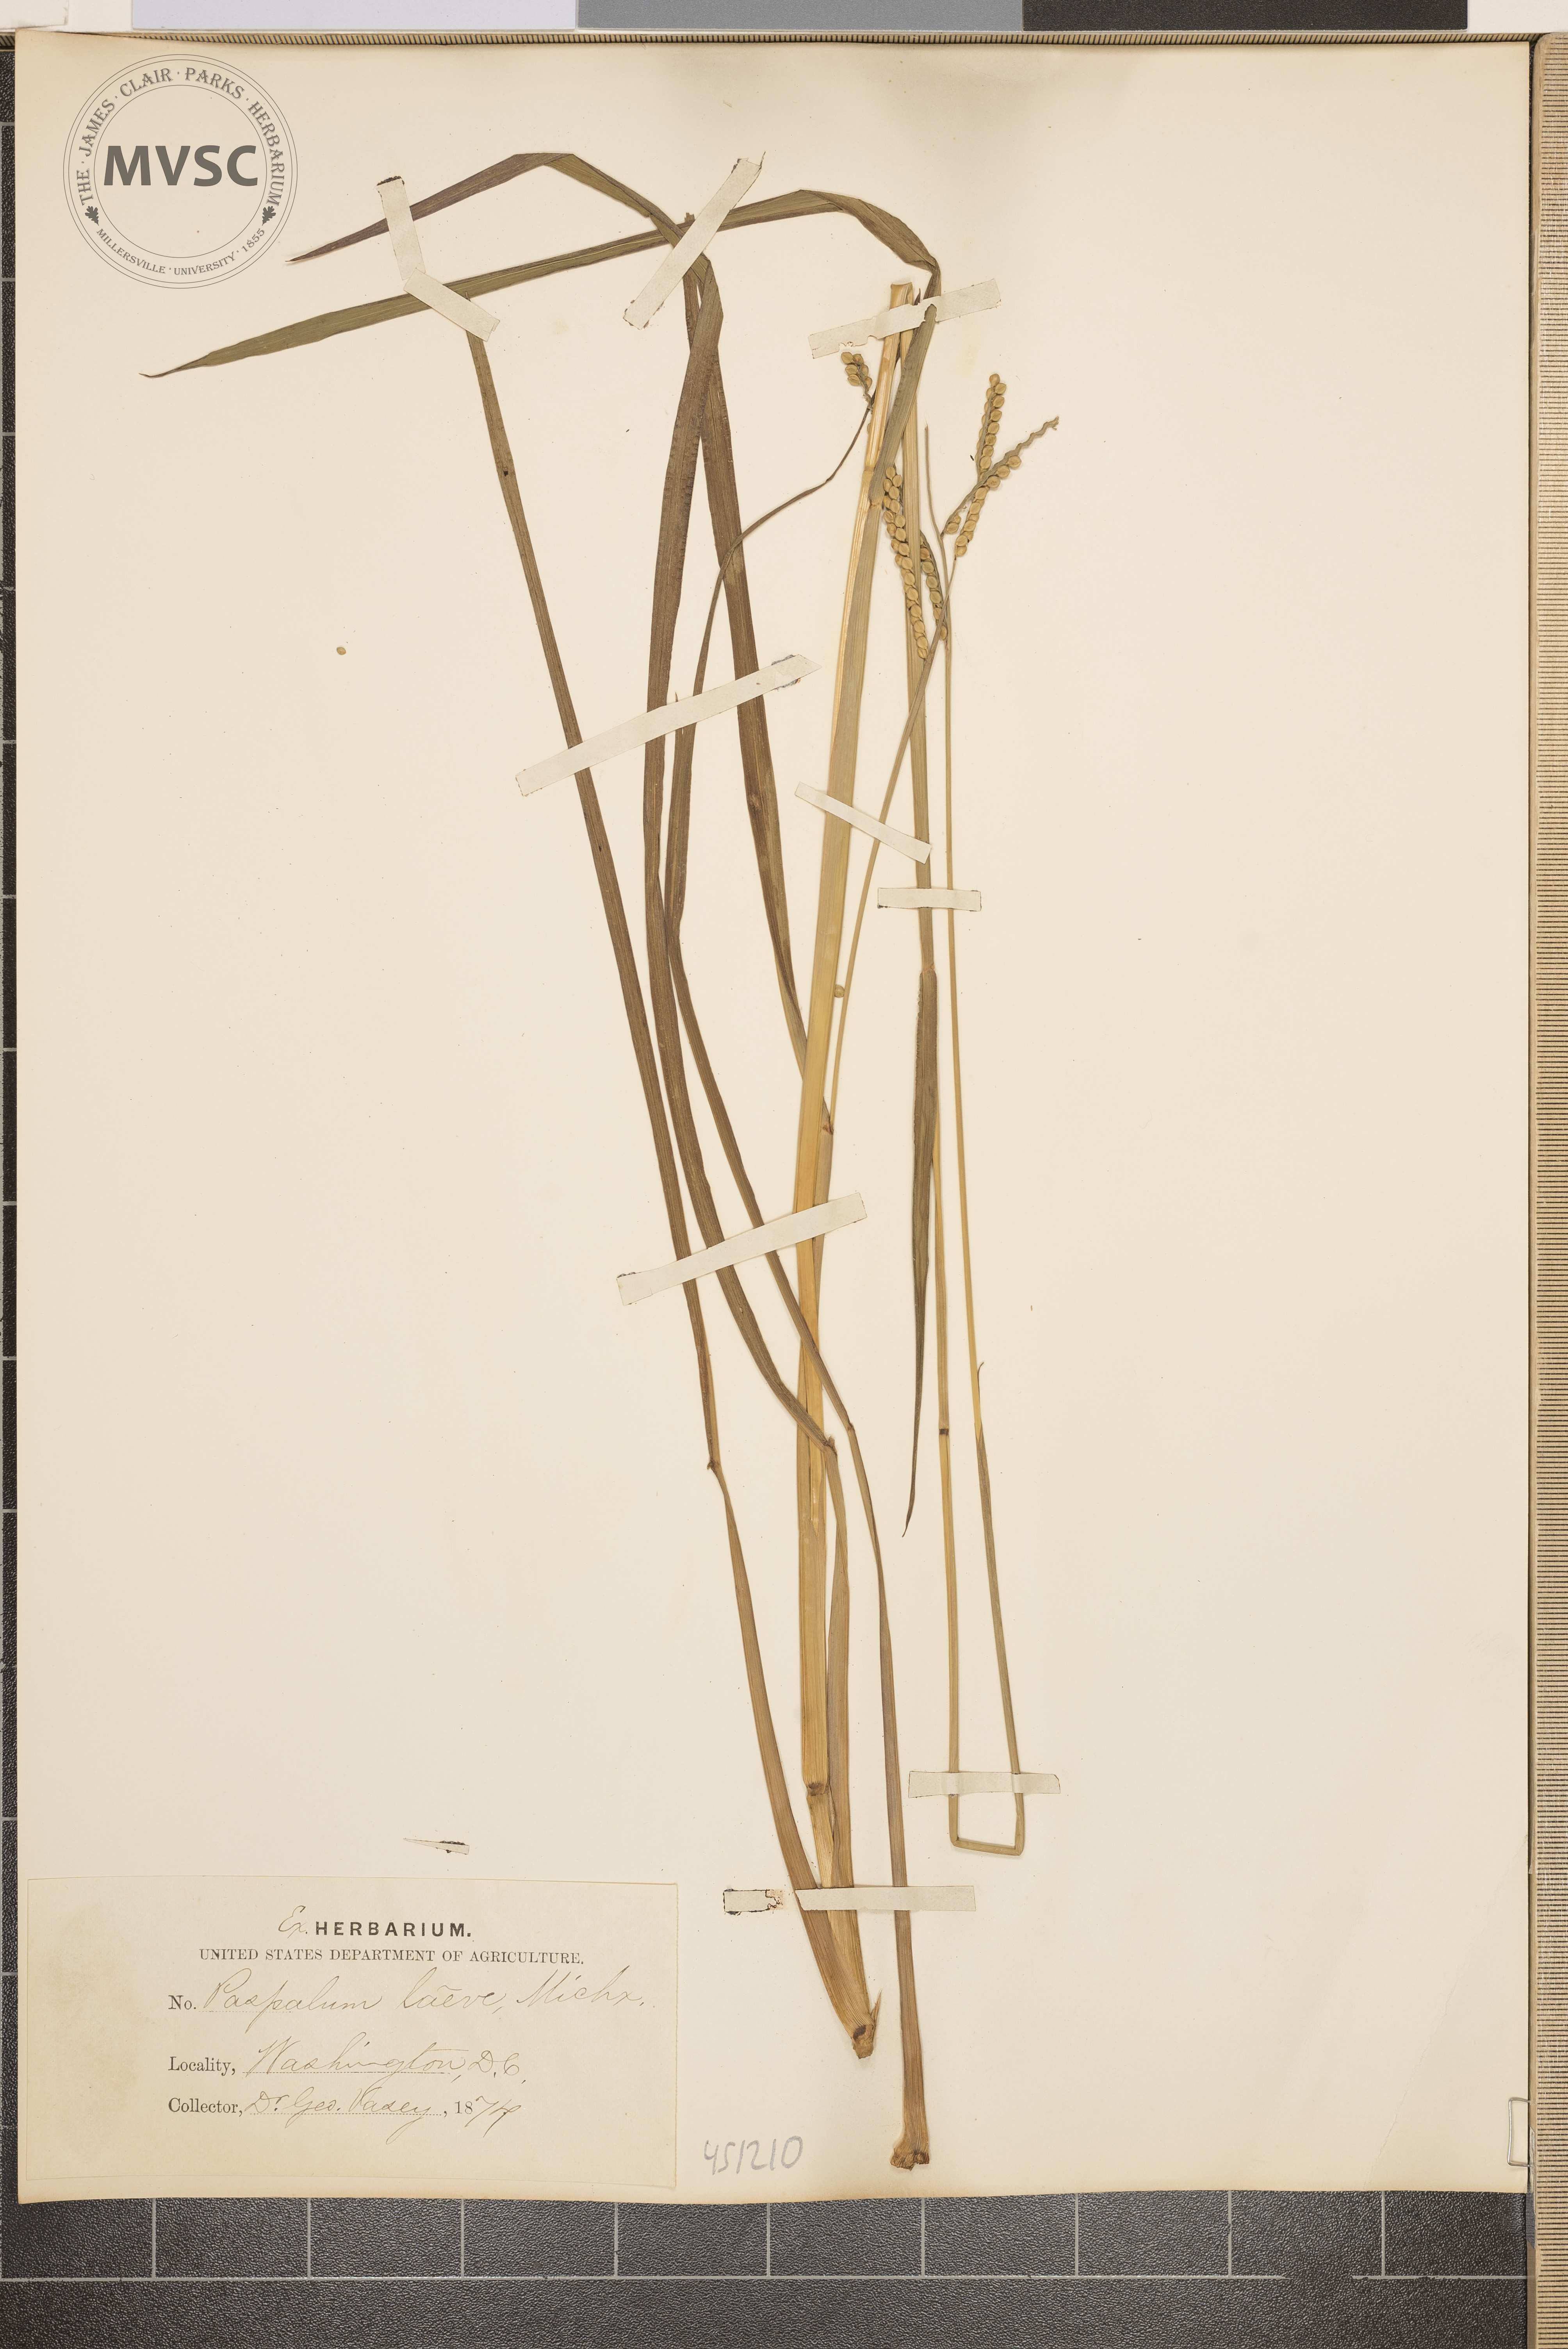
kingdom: Plantae
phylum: Tracheophyta
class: Liliopsida
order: Poales
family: Poaceae
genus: Paspalum
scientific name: Paspalum laeve
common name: Field paspalum
